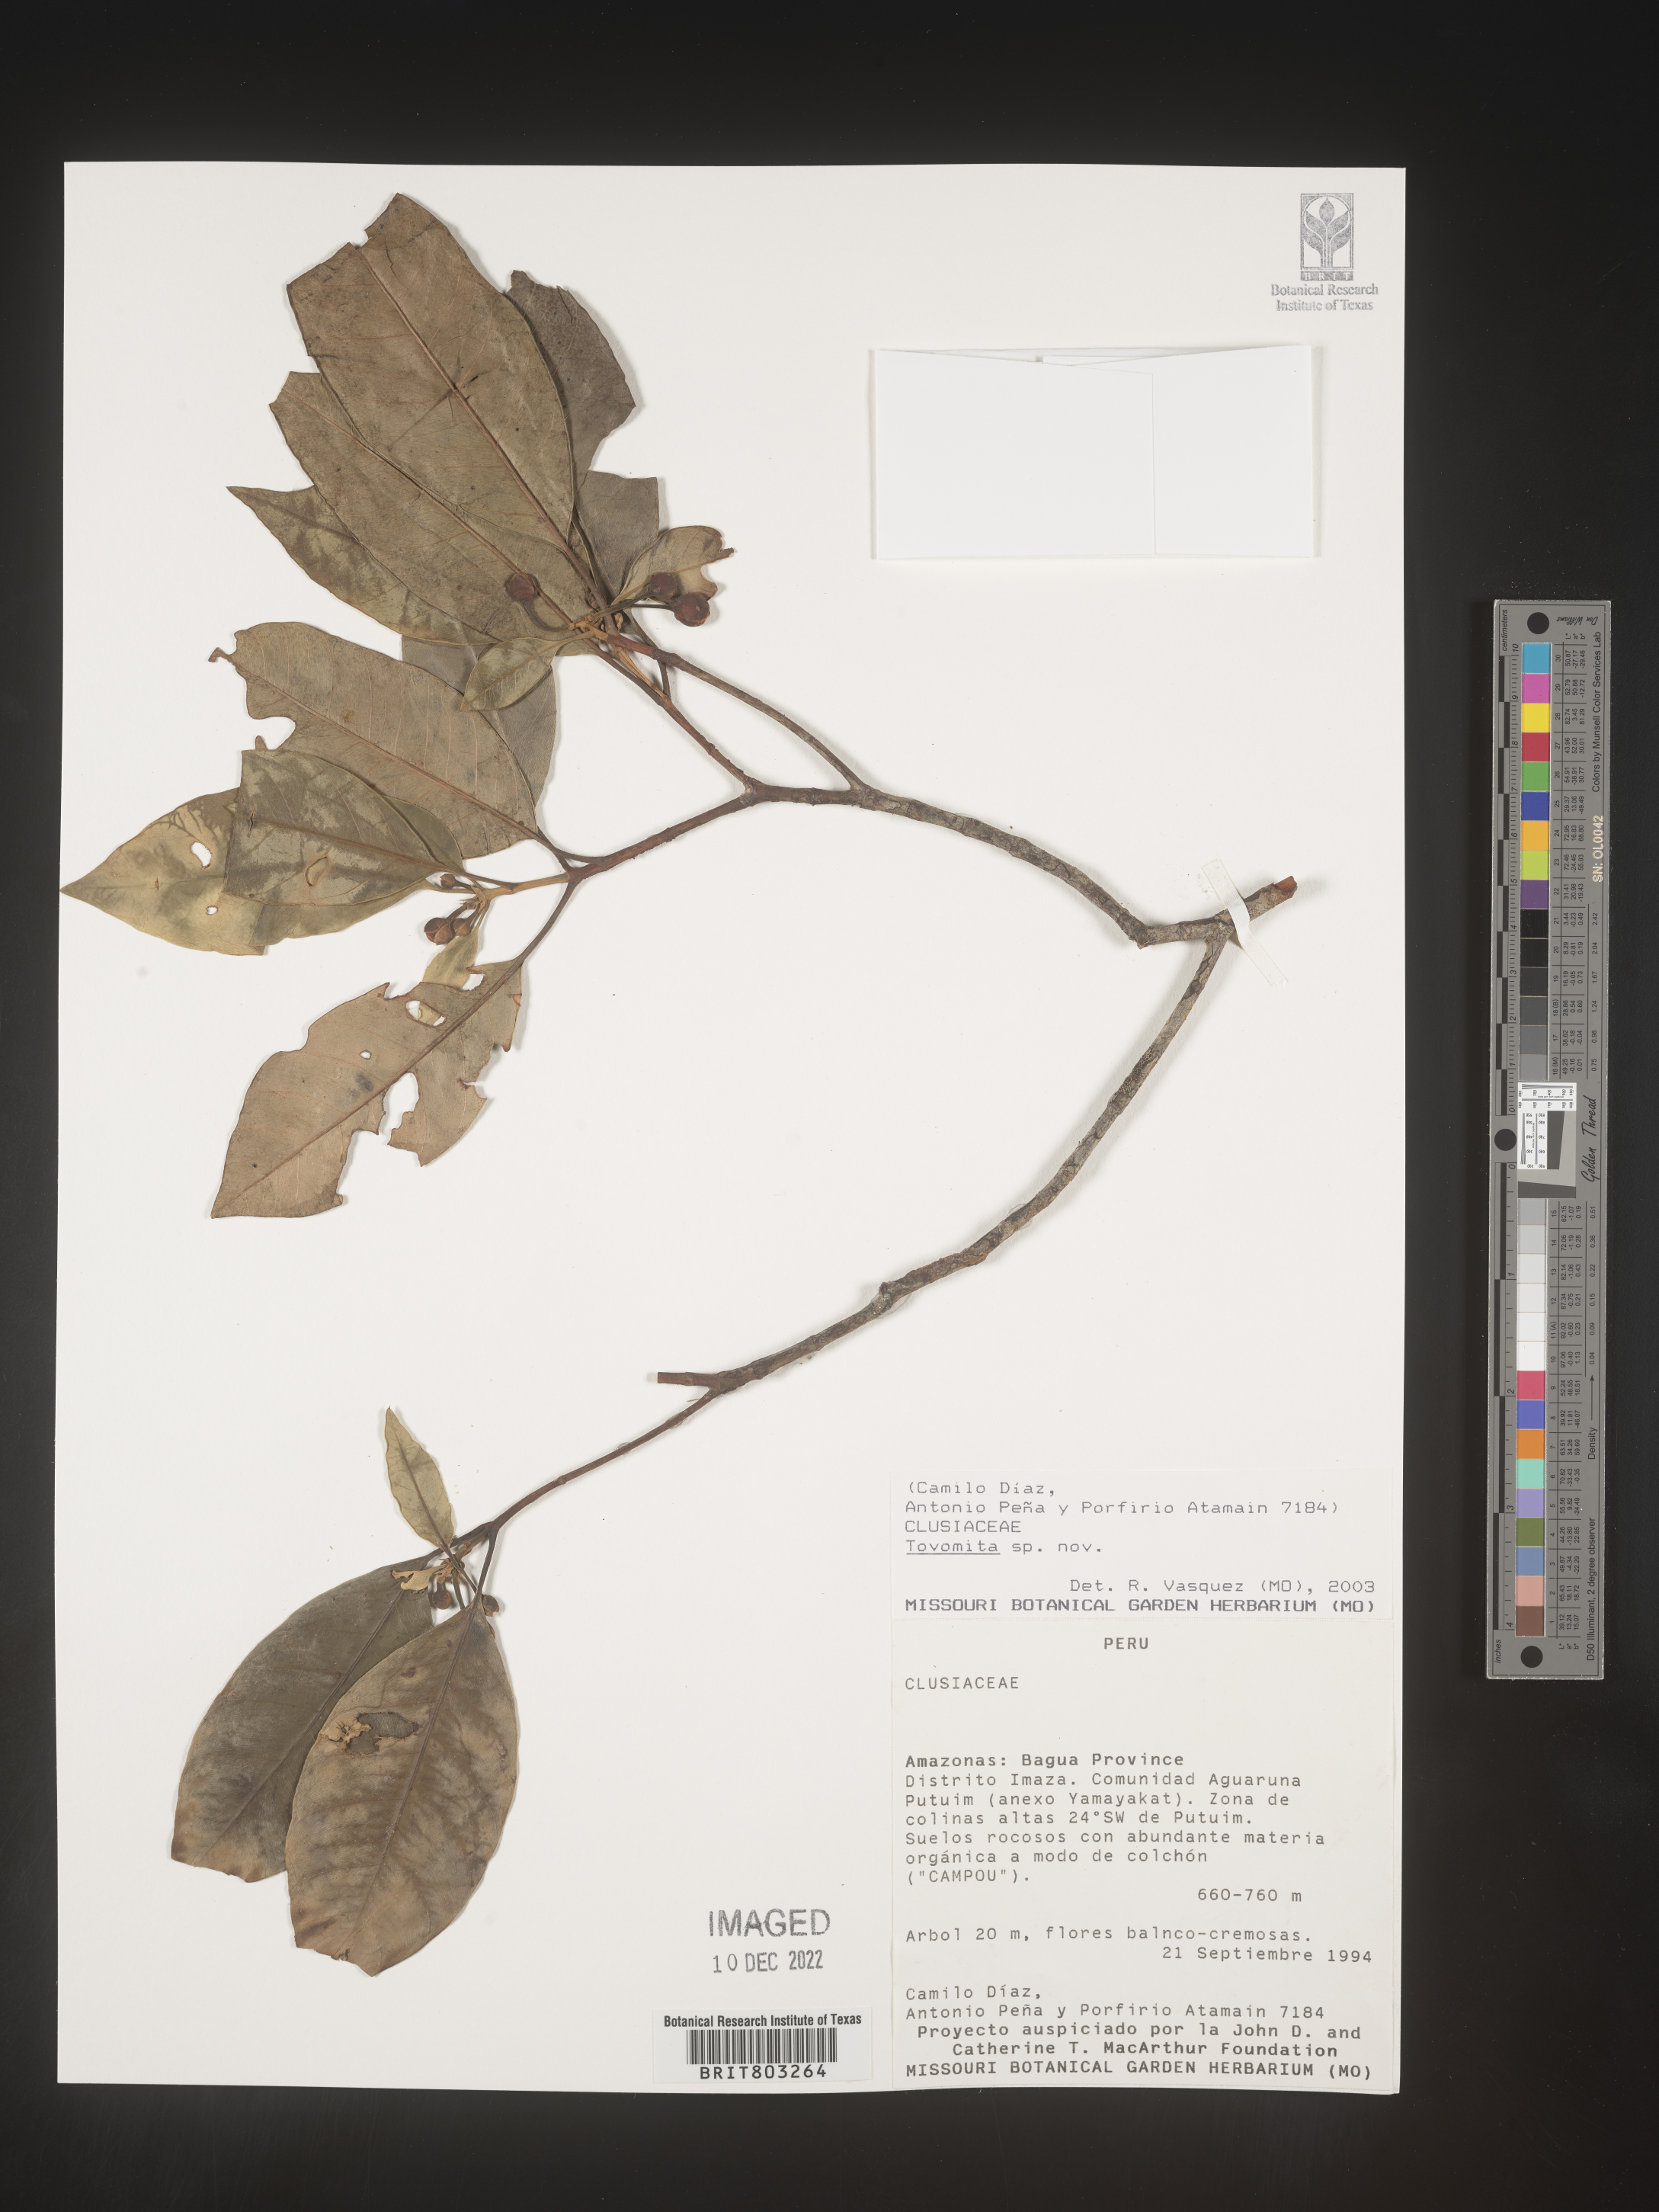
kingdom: Plantae
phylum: Tracheophyta
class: Magnoliopsida
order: Malpighiales
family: Clusiaceae
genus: Tovomita
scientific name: Tovomita
